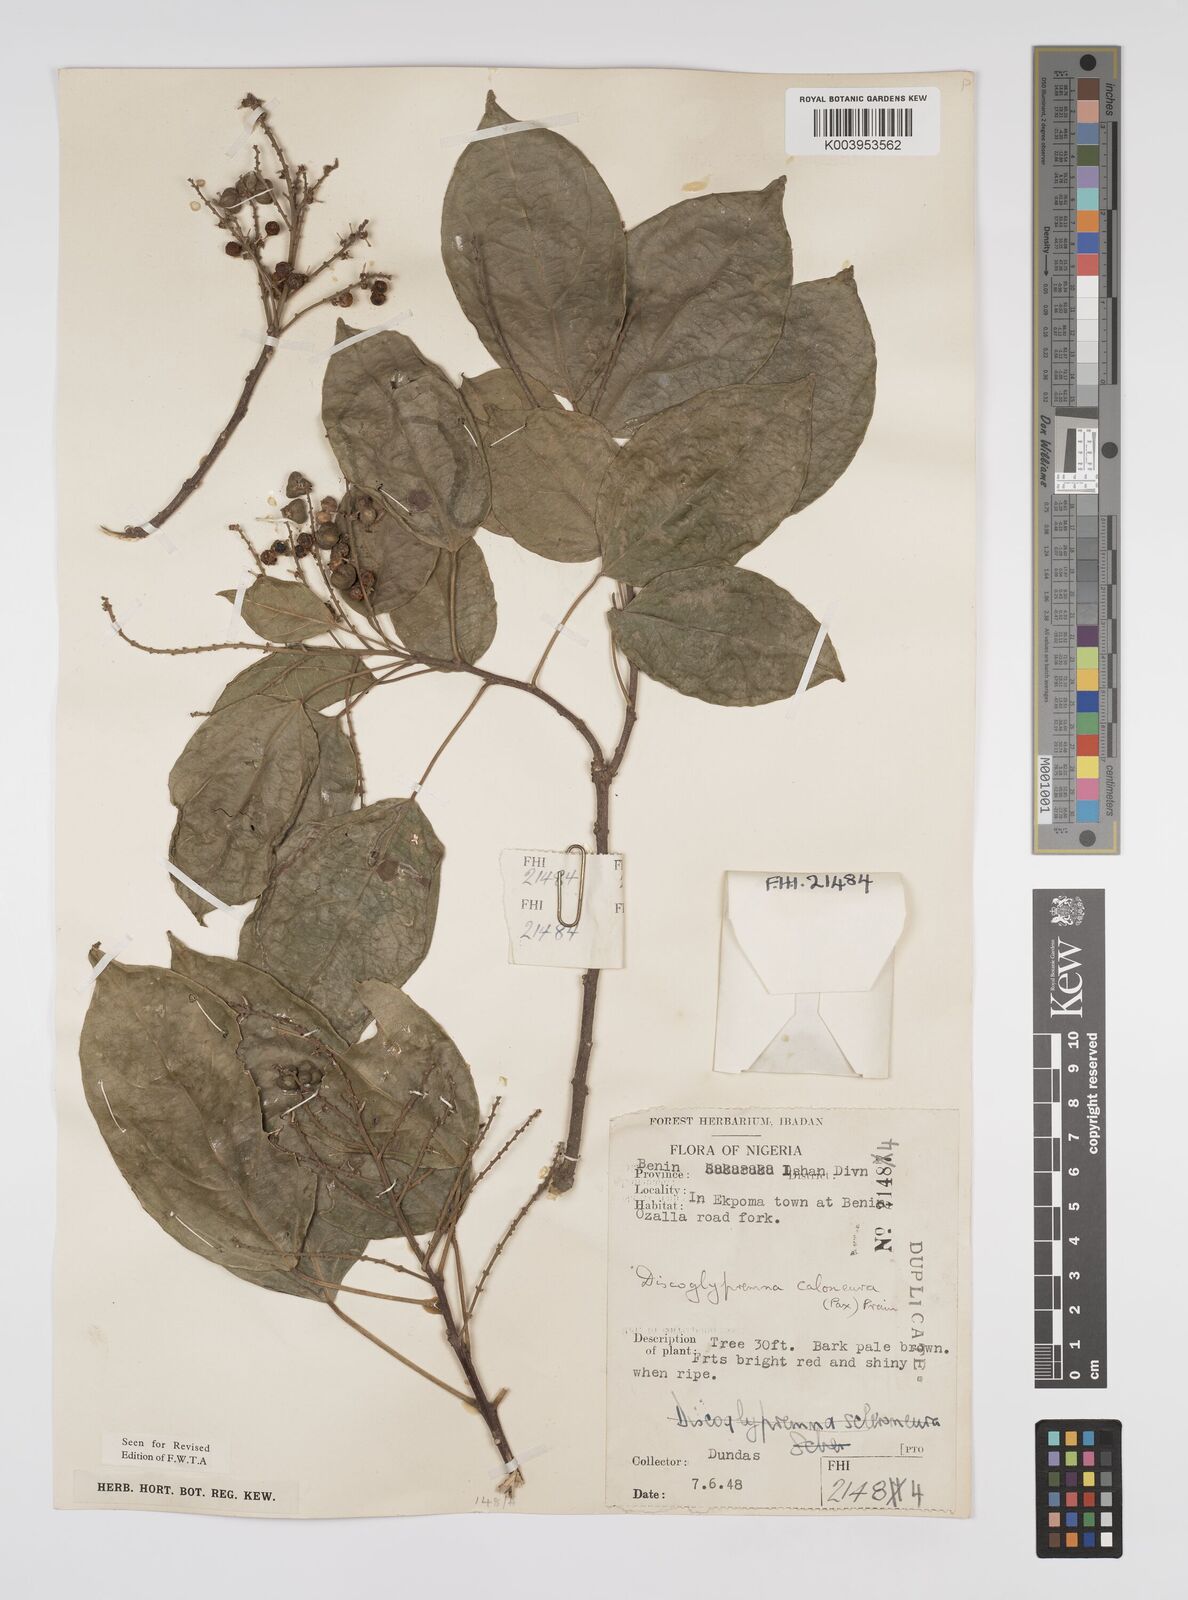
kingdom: Plantae
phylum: Tracheophyta
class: Magnoliopsida
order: Malpighiales
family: Euphorbiaceae
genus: Discoglypremna
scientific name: Discoglypremna caloneura
